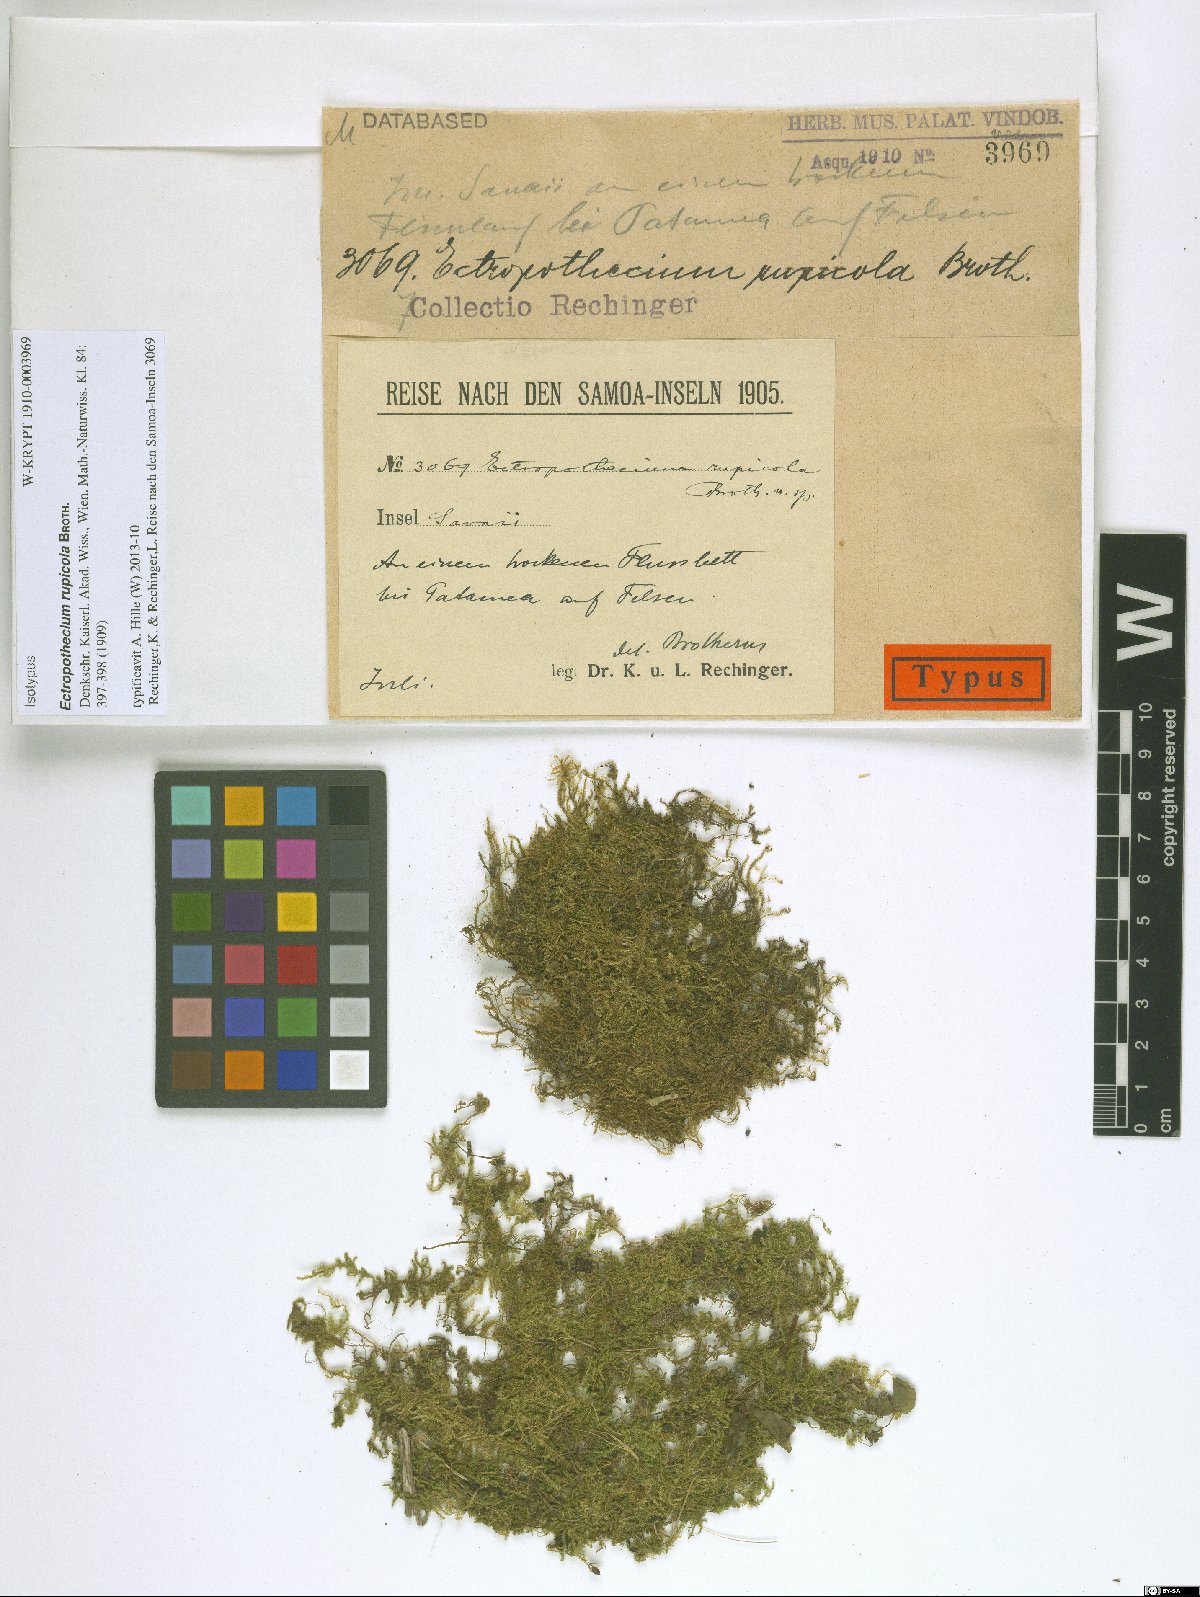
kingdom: Plantae
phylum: Bryophyta
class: Bryopsida
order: Hypnales
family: Hypnaceae
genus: Ectropothecium
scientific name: Ectropothecium rupicola
